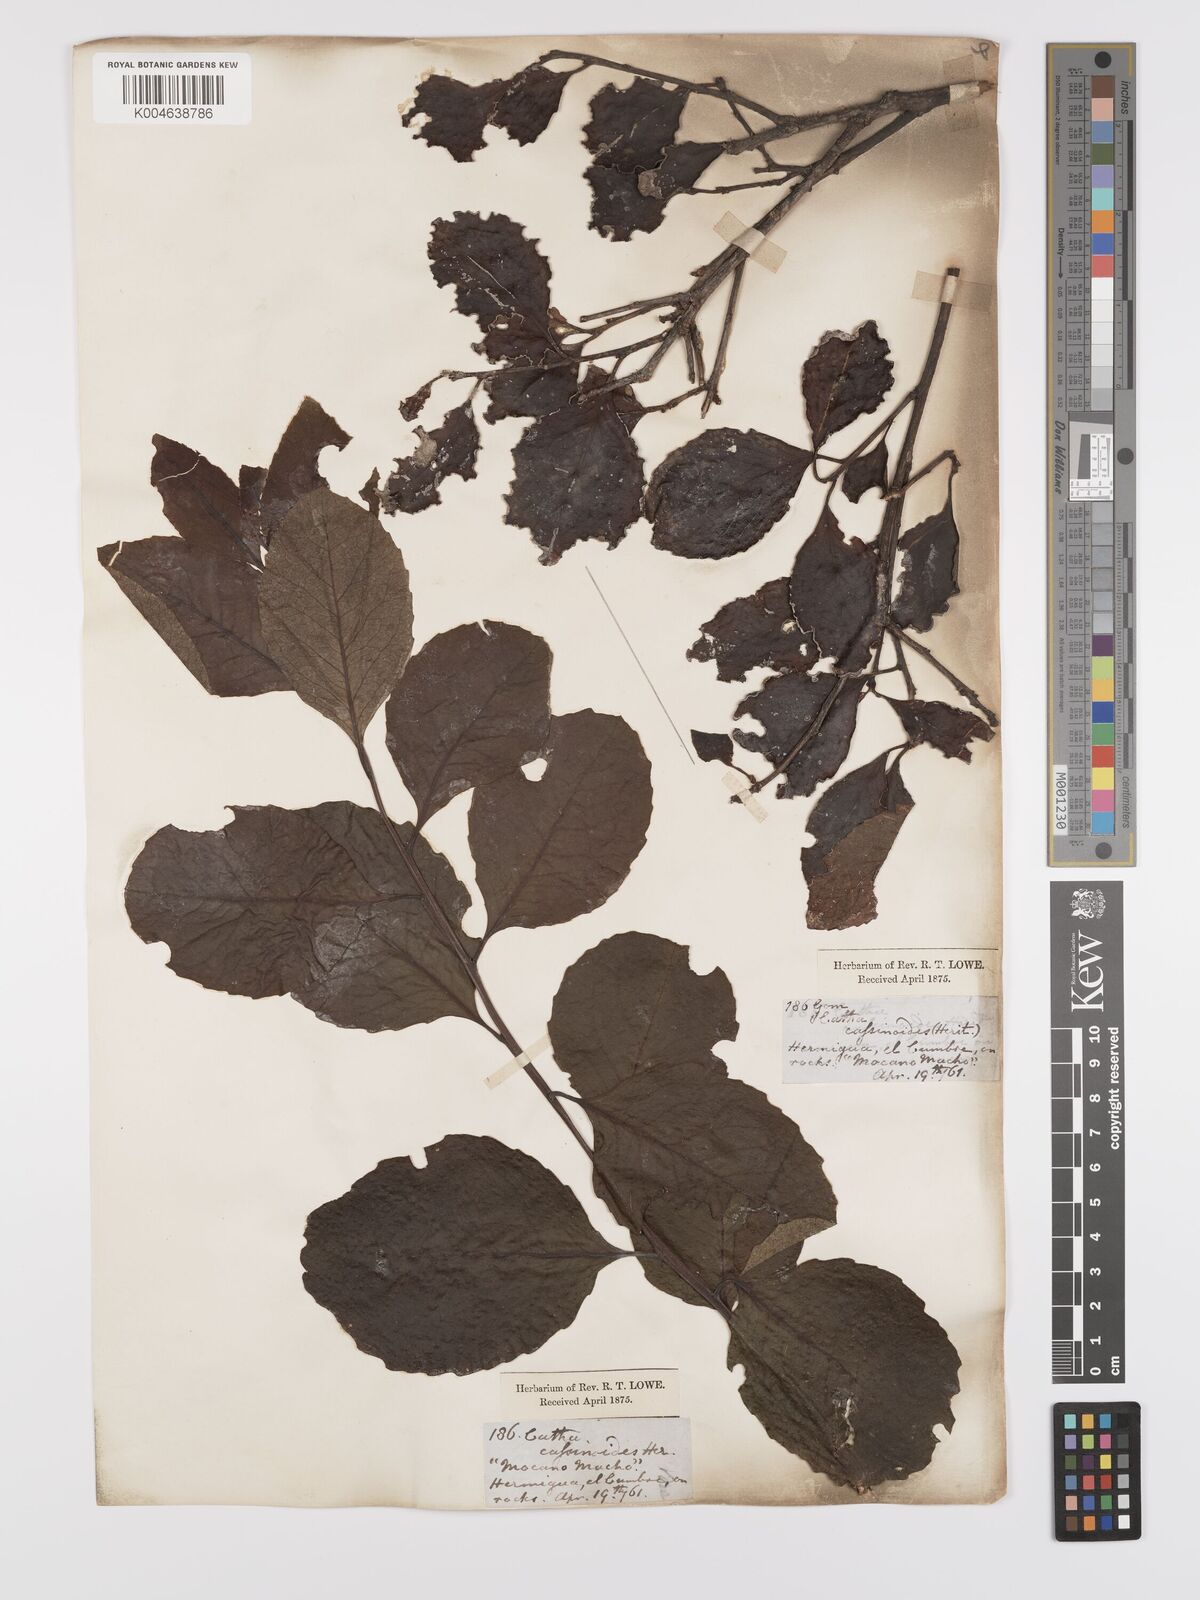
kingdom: Plantae
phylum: Tracheophyta
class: Magnoliopsida
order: Celastrales
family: Celastraceae
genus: Gymnosporia
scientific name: Gymnosporia cassinoides
